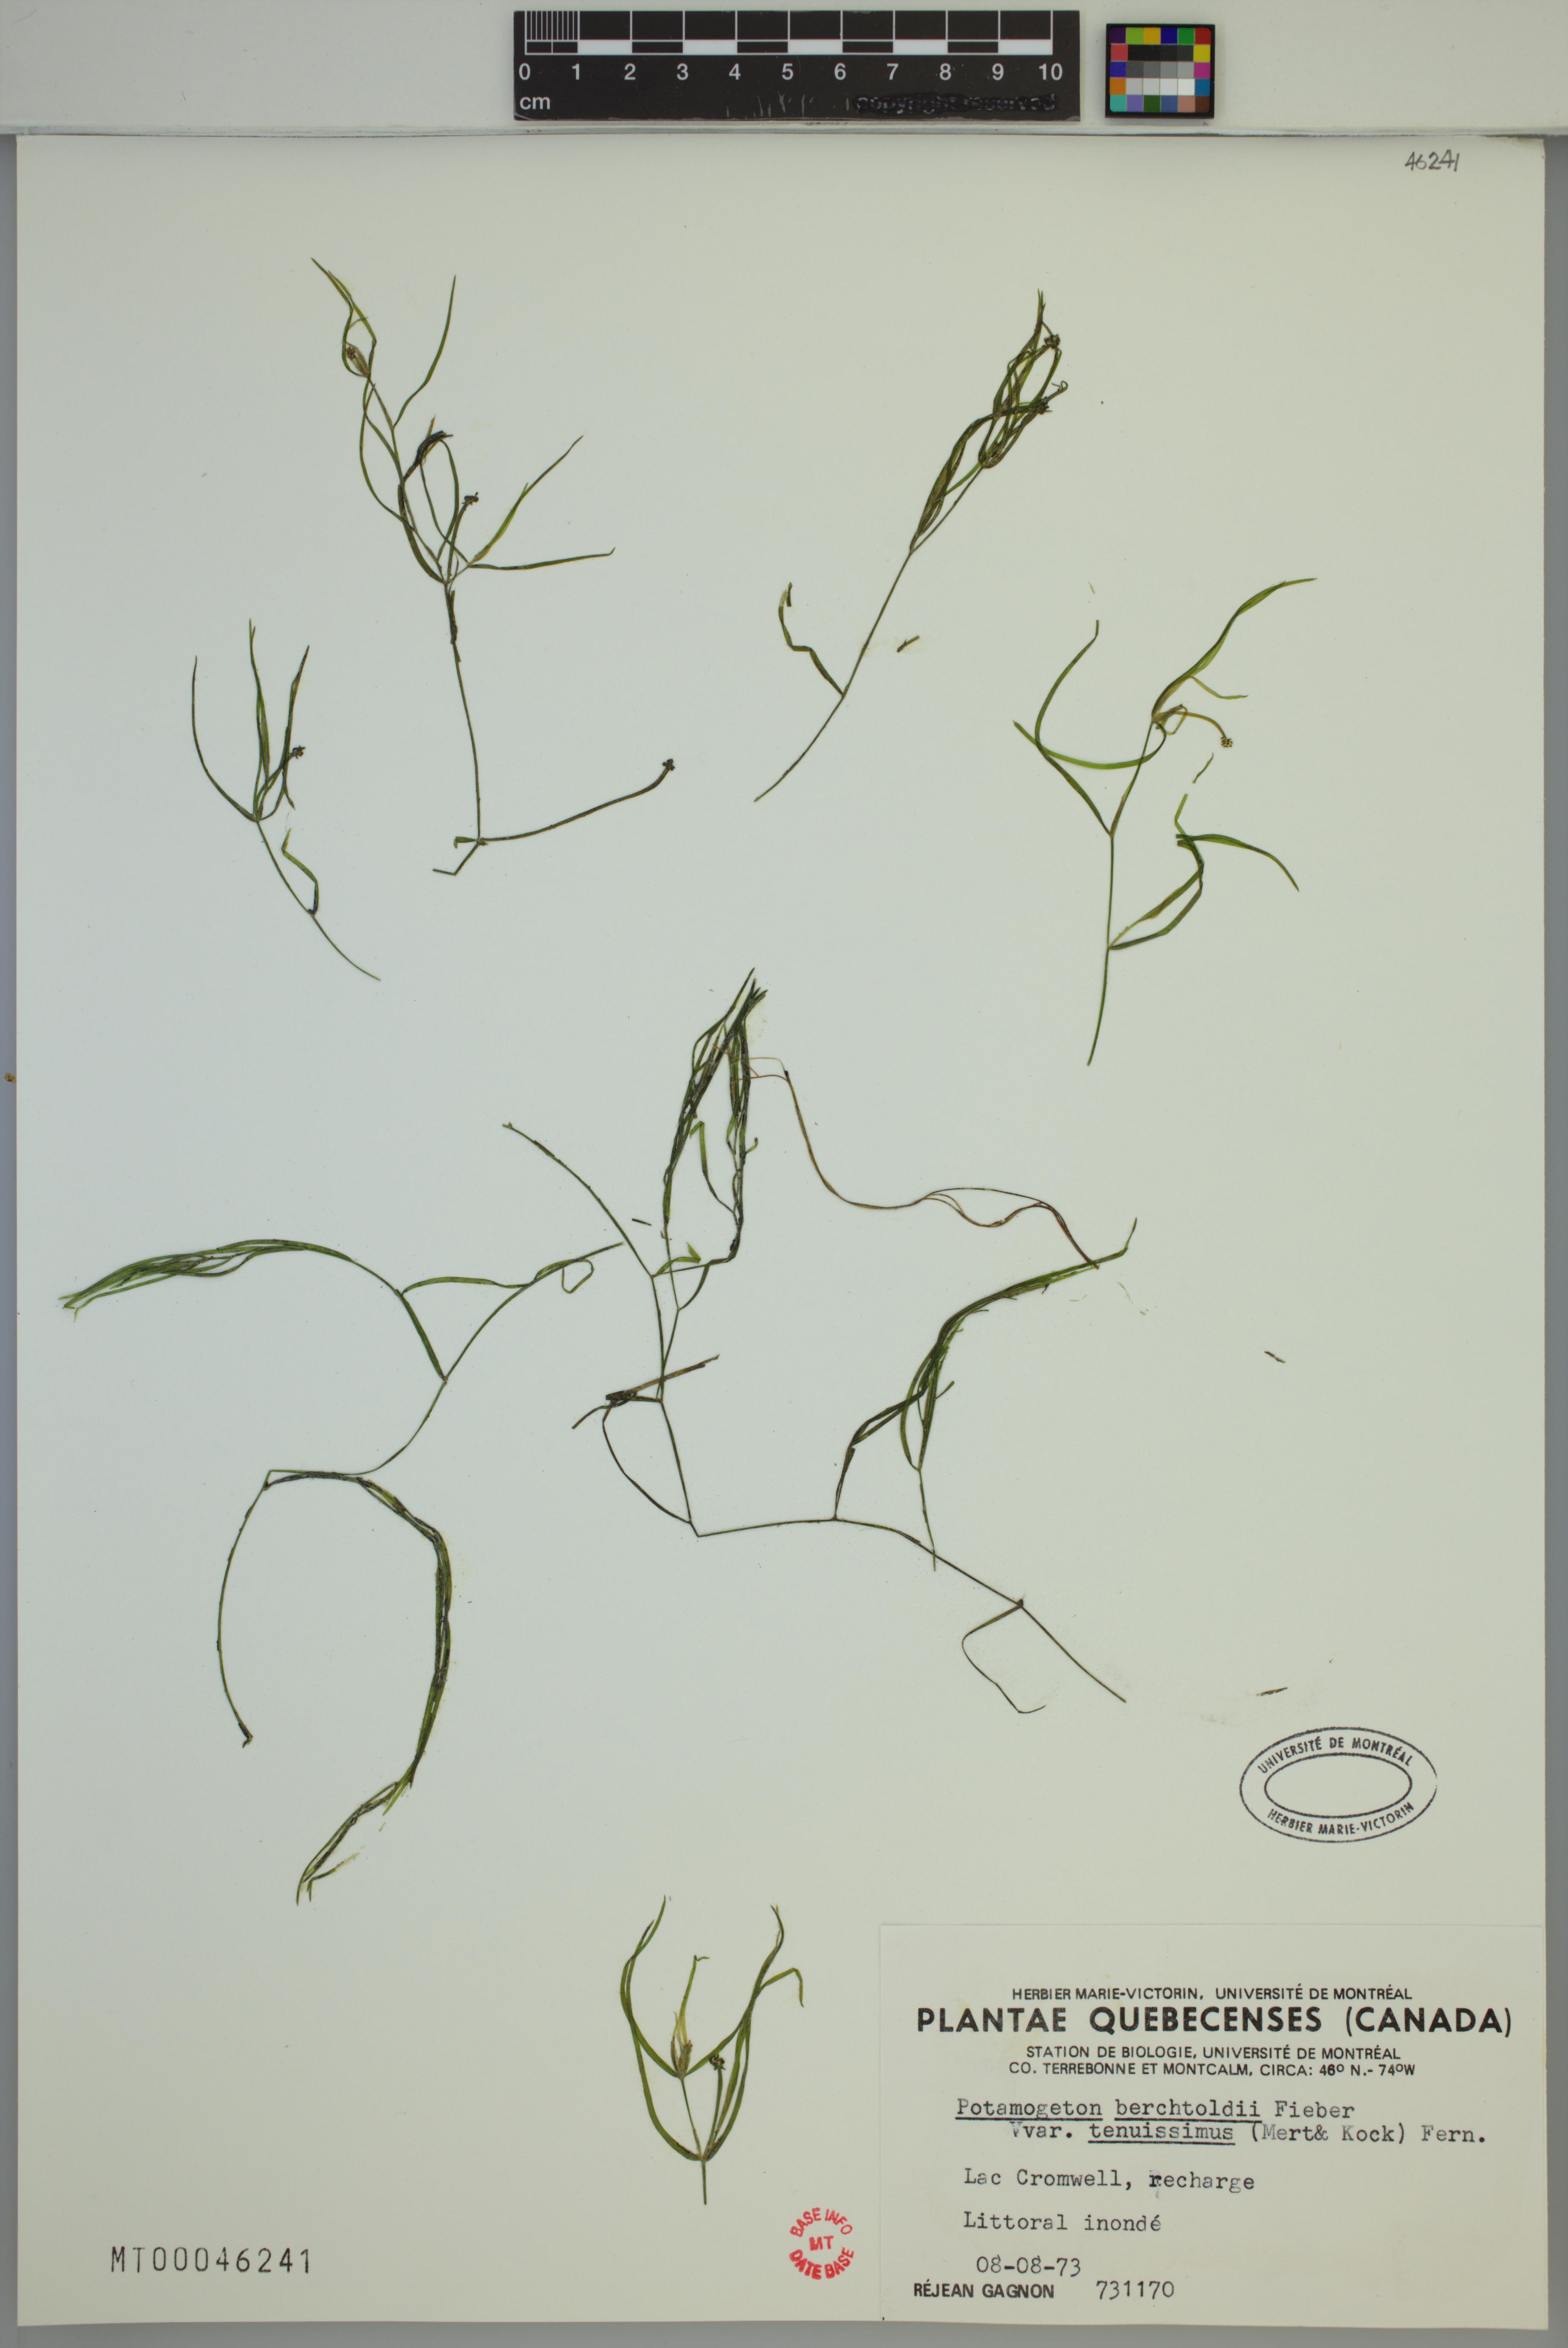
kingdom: Plantae
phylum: Tracheophyta
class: Liliopsida
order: Alismatales
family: Potamogetonaceae
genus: Potamogeton
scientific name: Potamogeton berchtoldii
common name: Small pondweed
